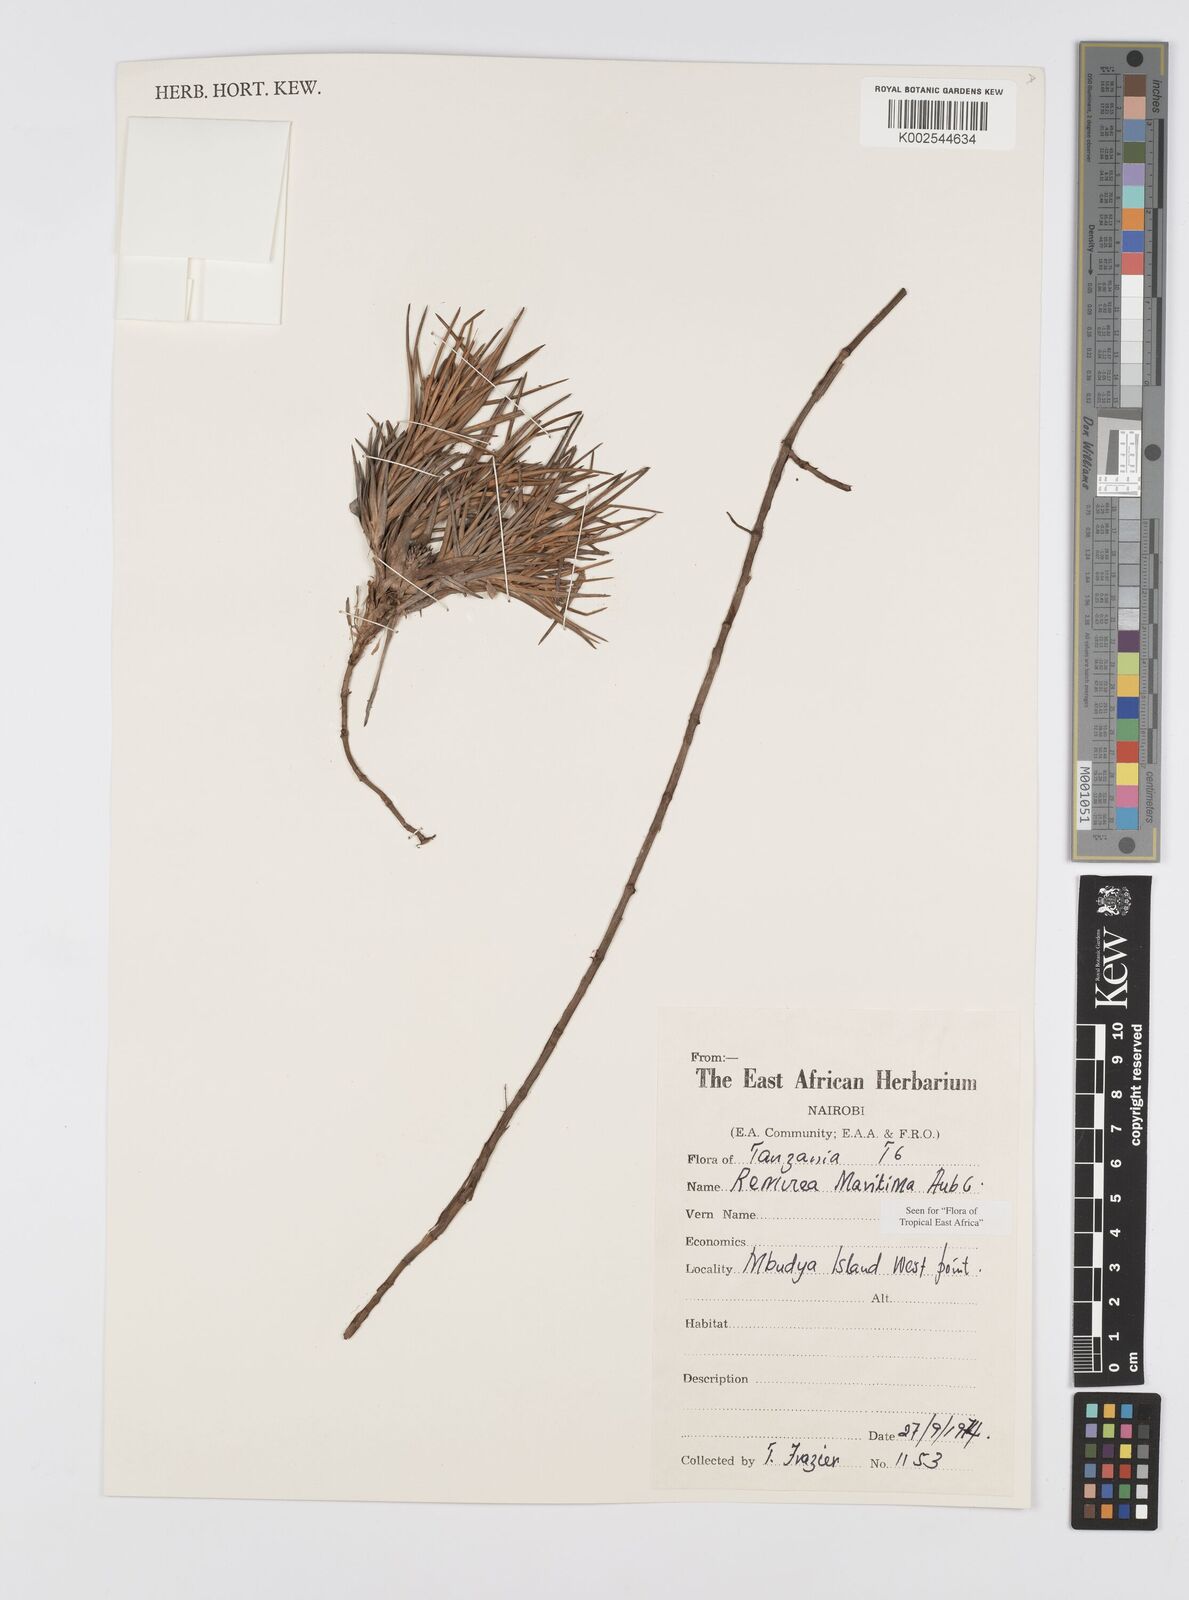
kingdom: Plantae
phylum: Tracheophyta
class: Liliopsida
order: Poales
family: Cyperaceae
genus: Cyperus
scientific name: Cyperus
